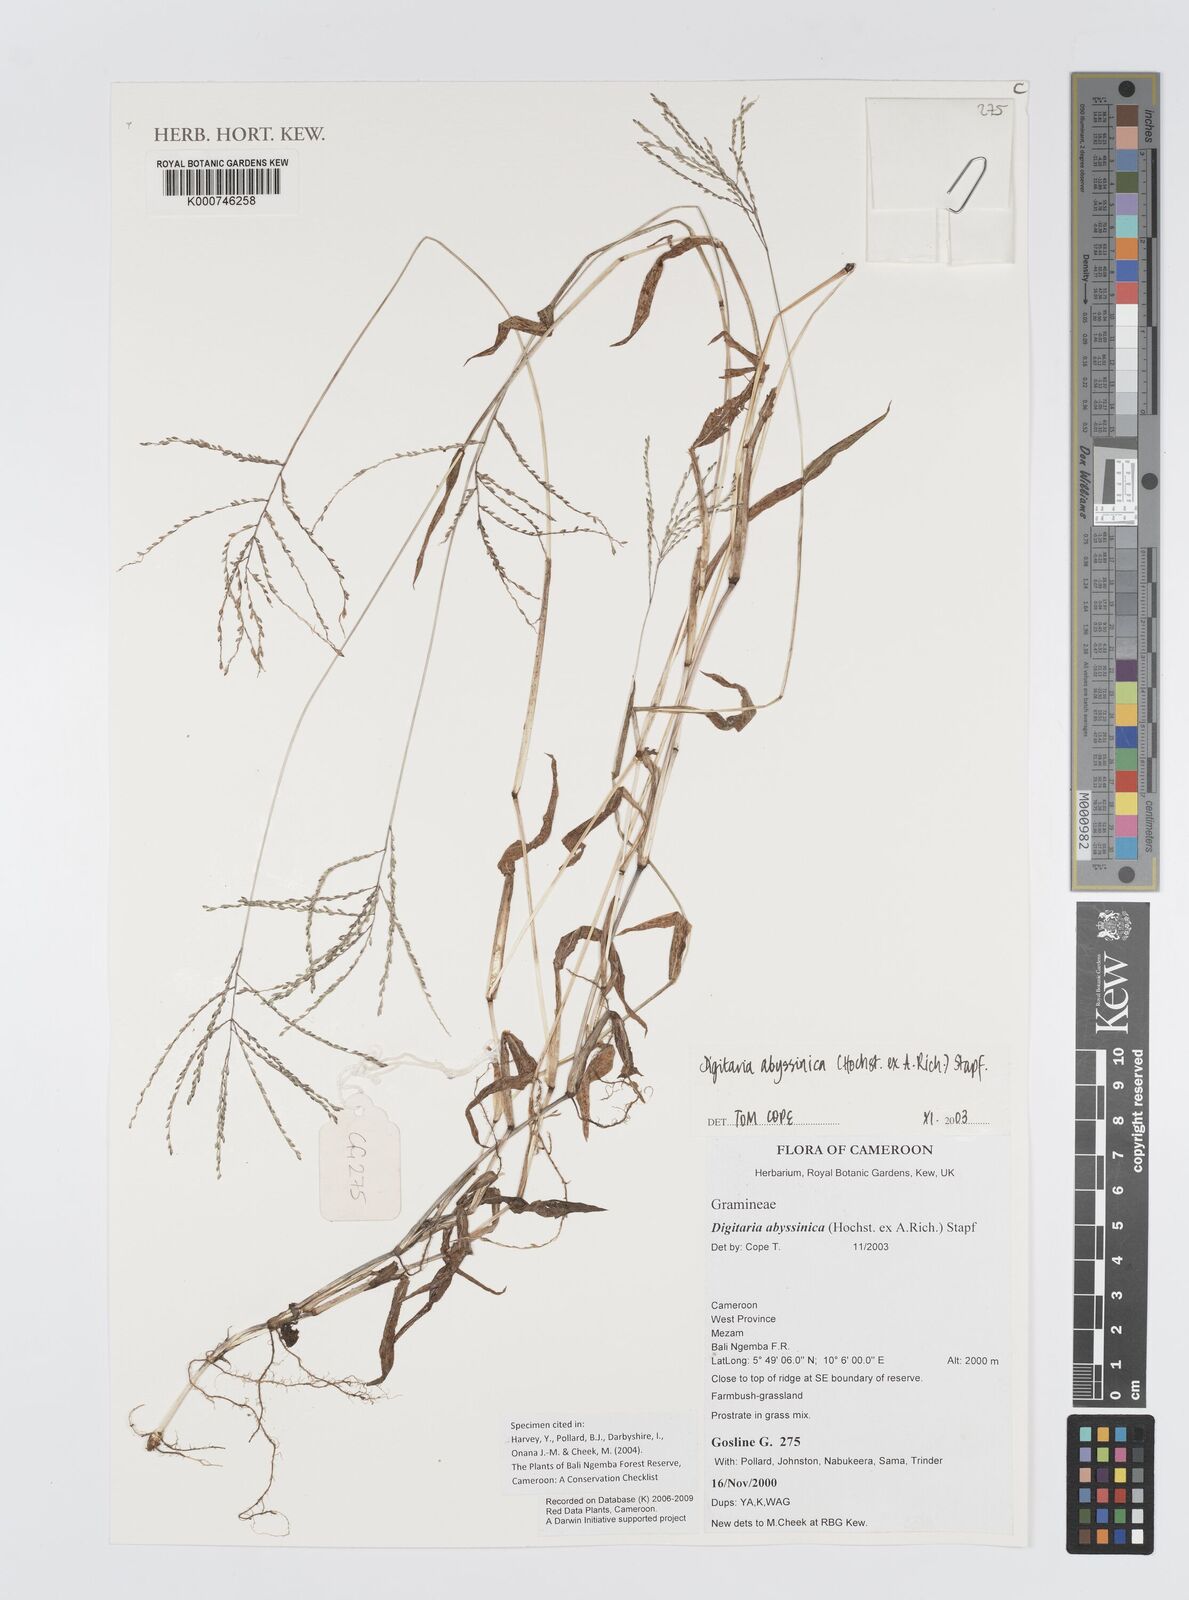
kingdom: Plantae
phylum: Tracheophyta
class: Liliopsida
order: Poales
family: Poaceae
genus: Digitaria
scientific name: Digitaria abyssinica
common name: African couchgrass
